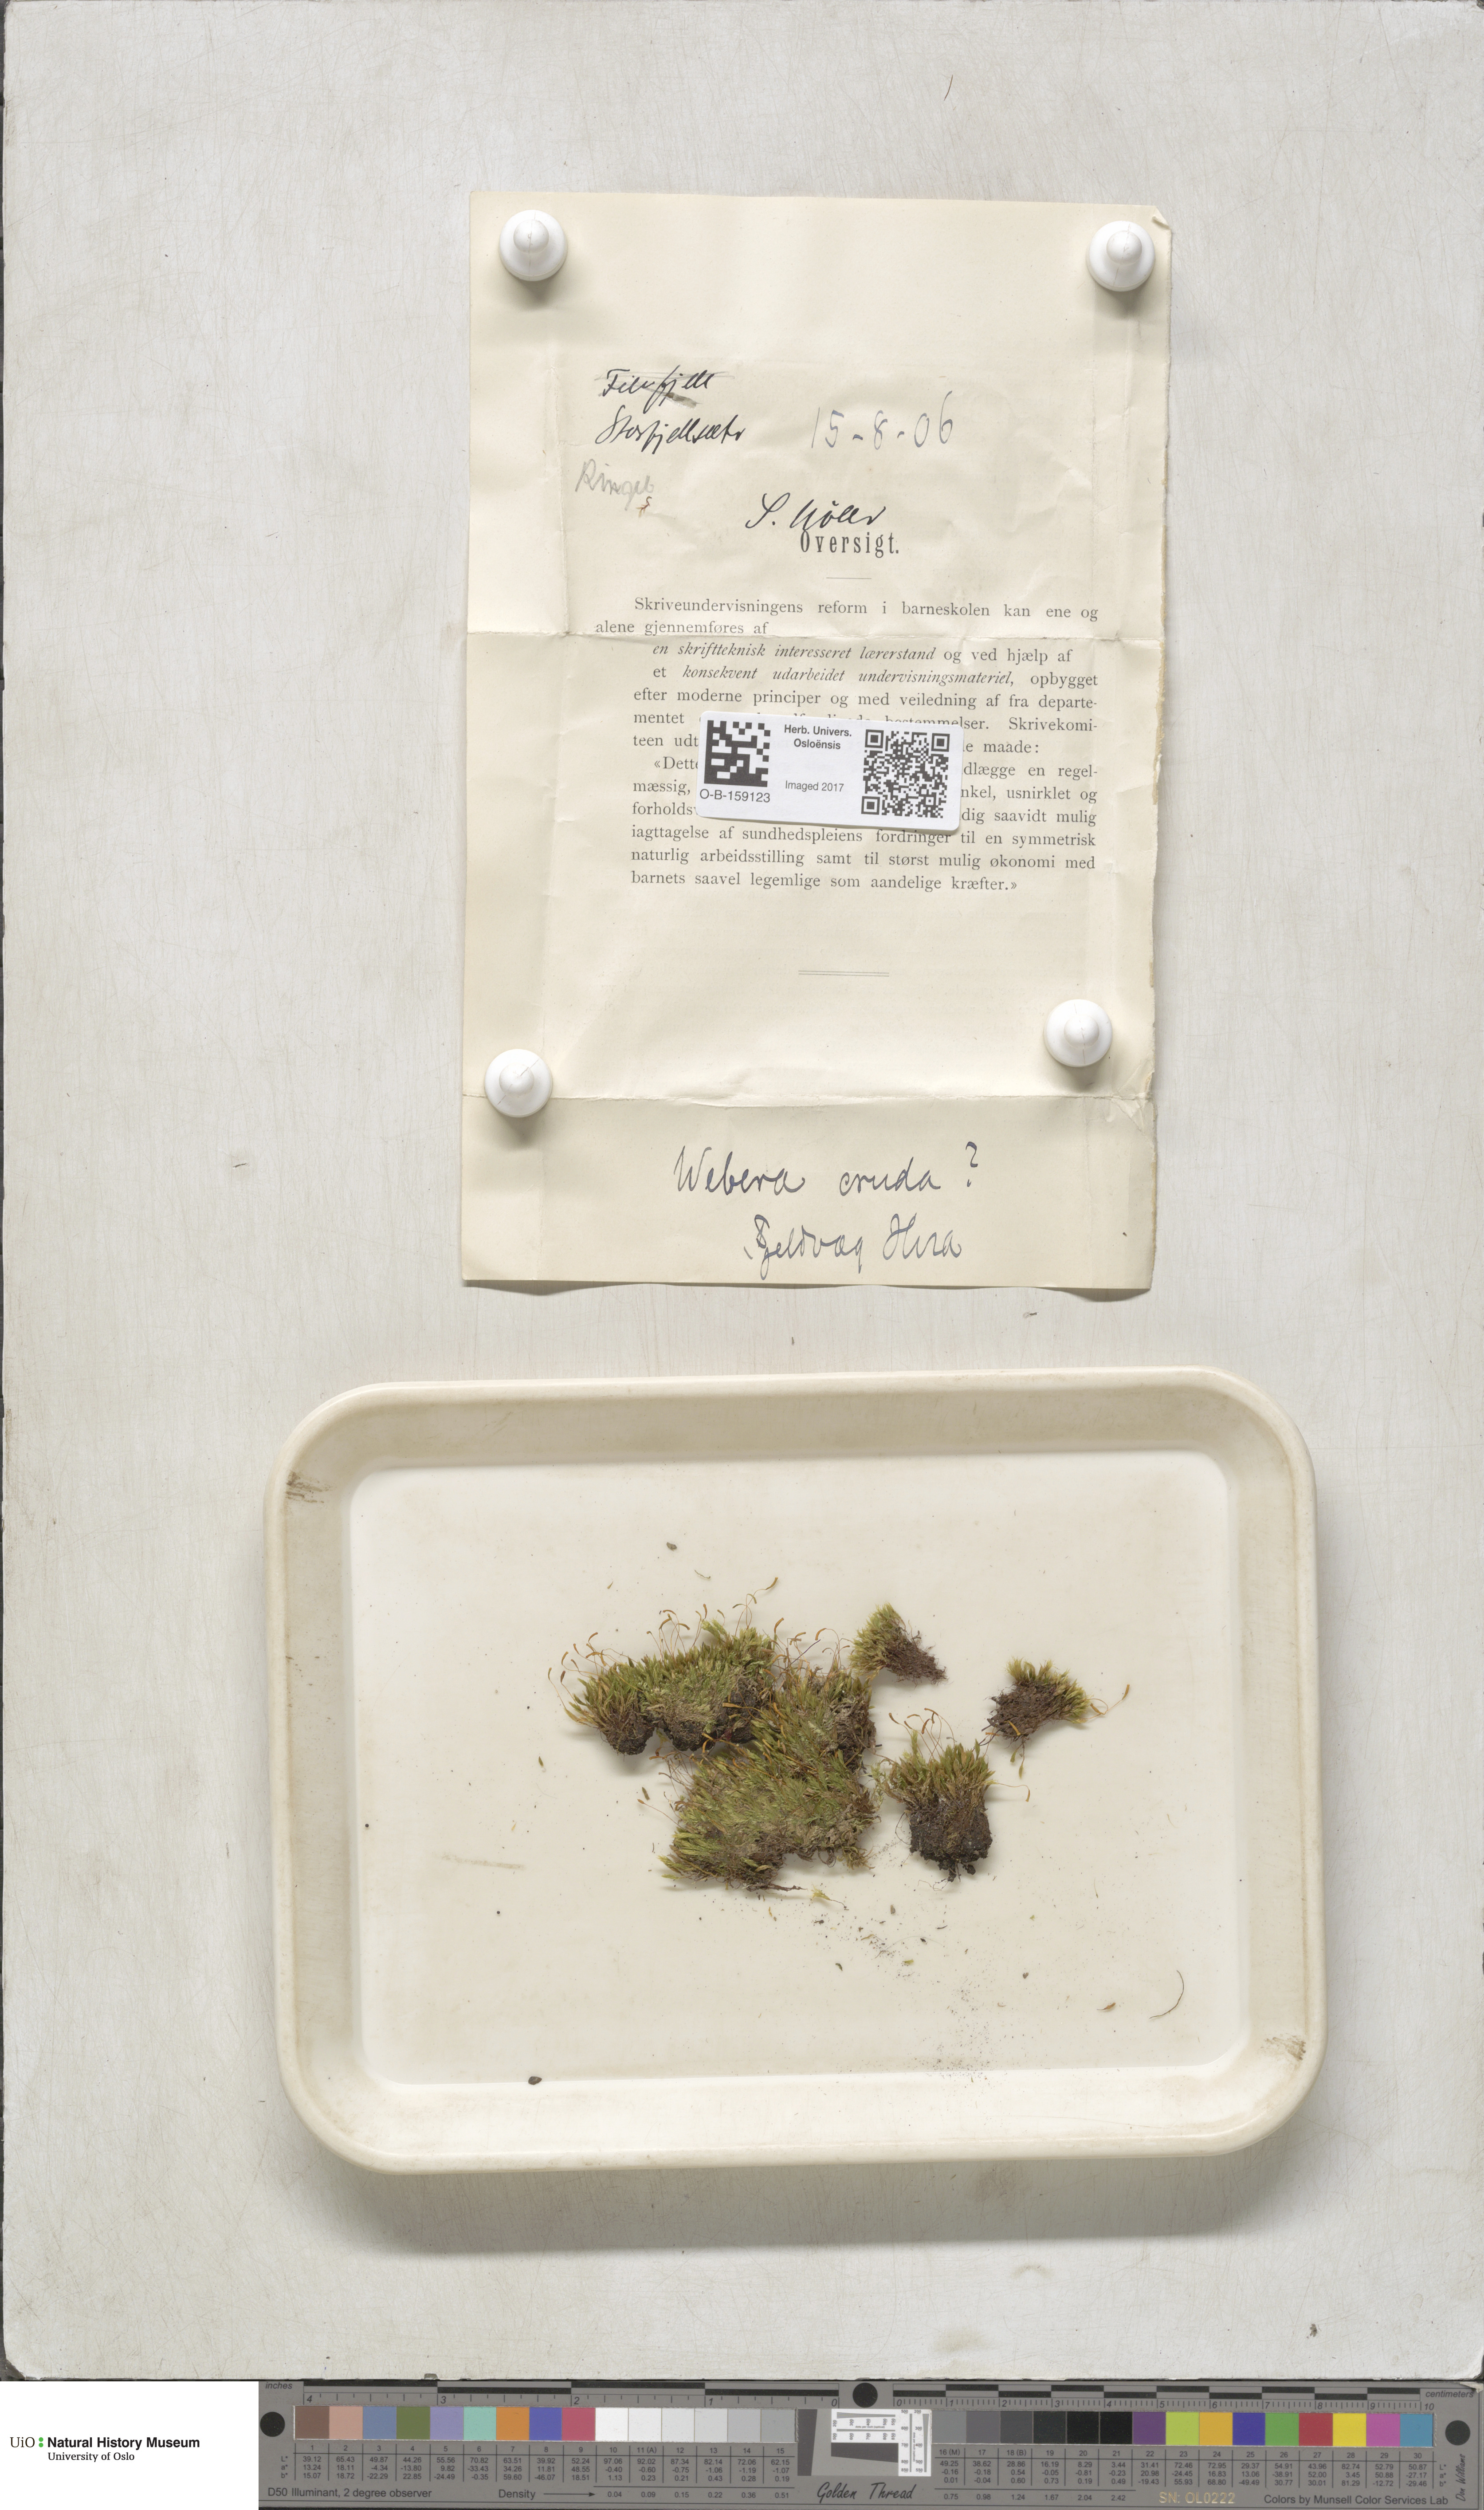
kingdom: Plantae
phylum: Bryophyta
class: Bryopsida
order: Bryales
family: Mniaceae
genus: Pohlia
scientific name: Pohlia cruda
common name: Opal nodding moss
